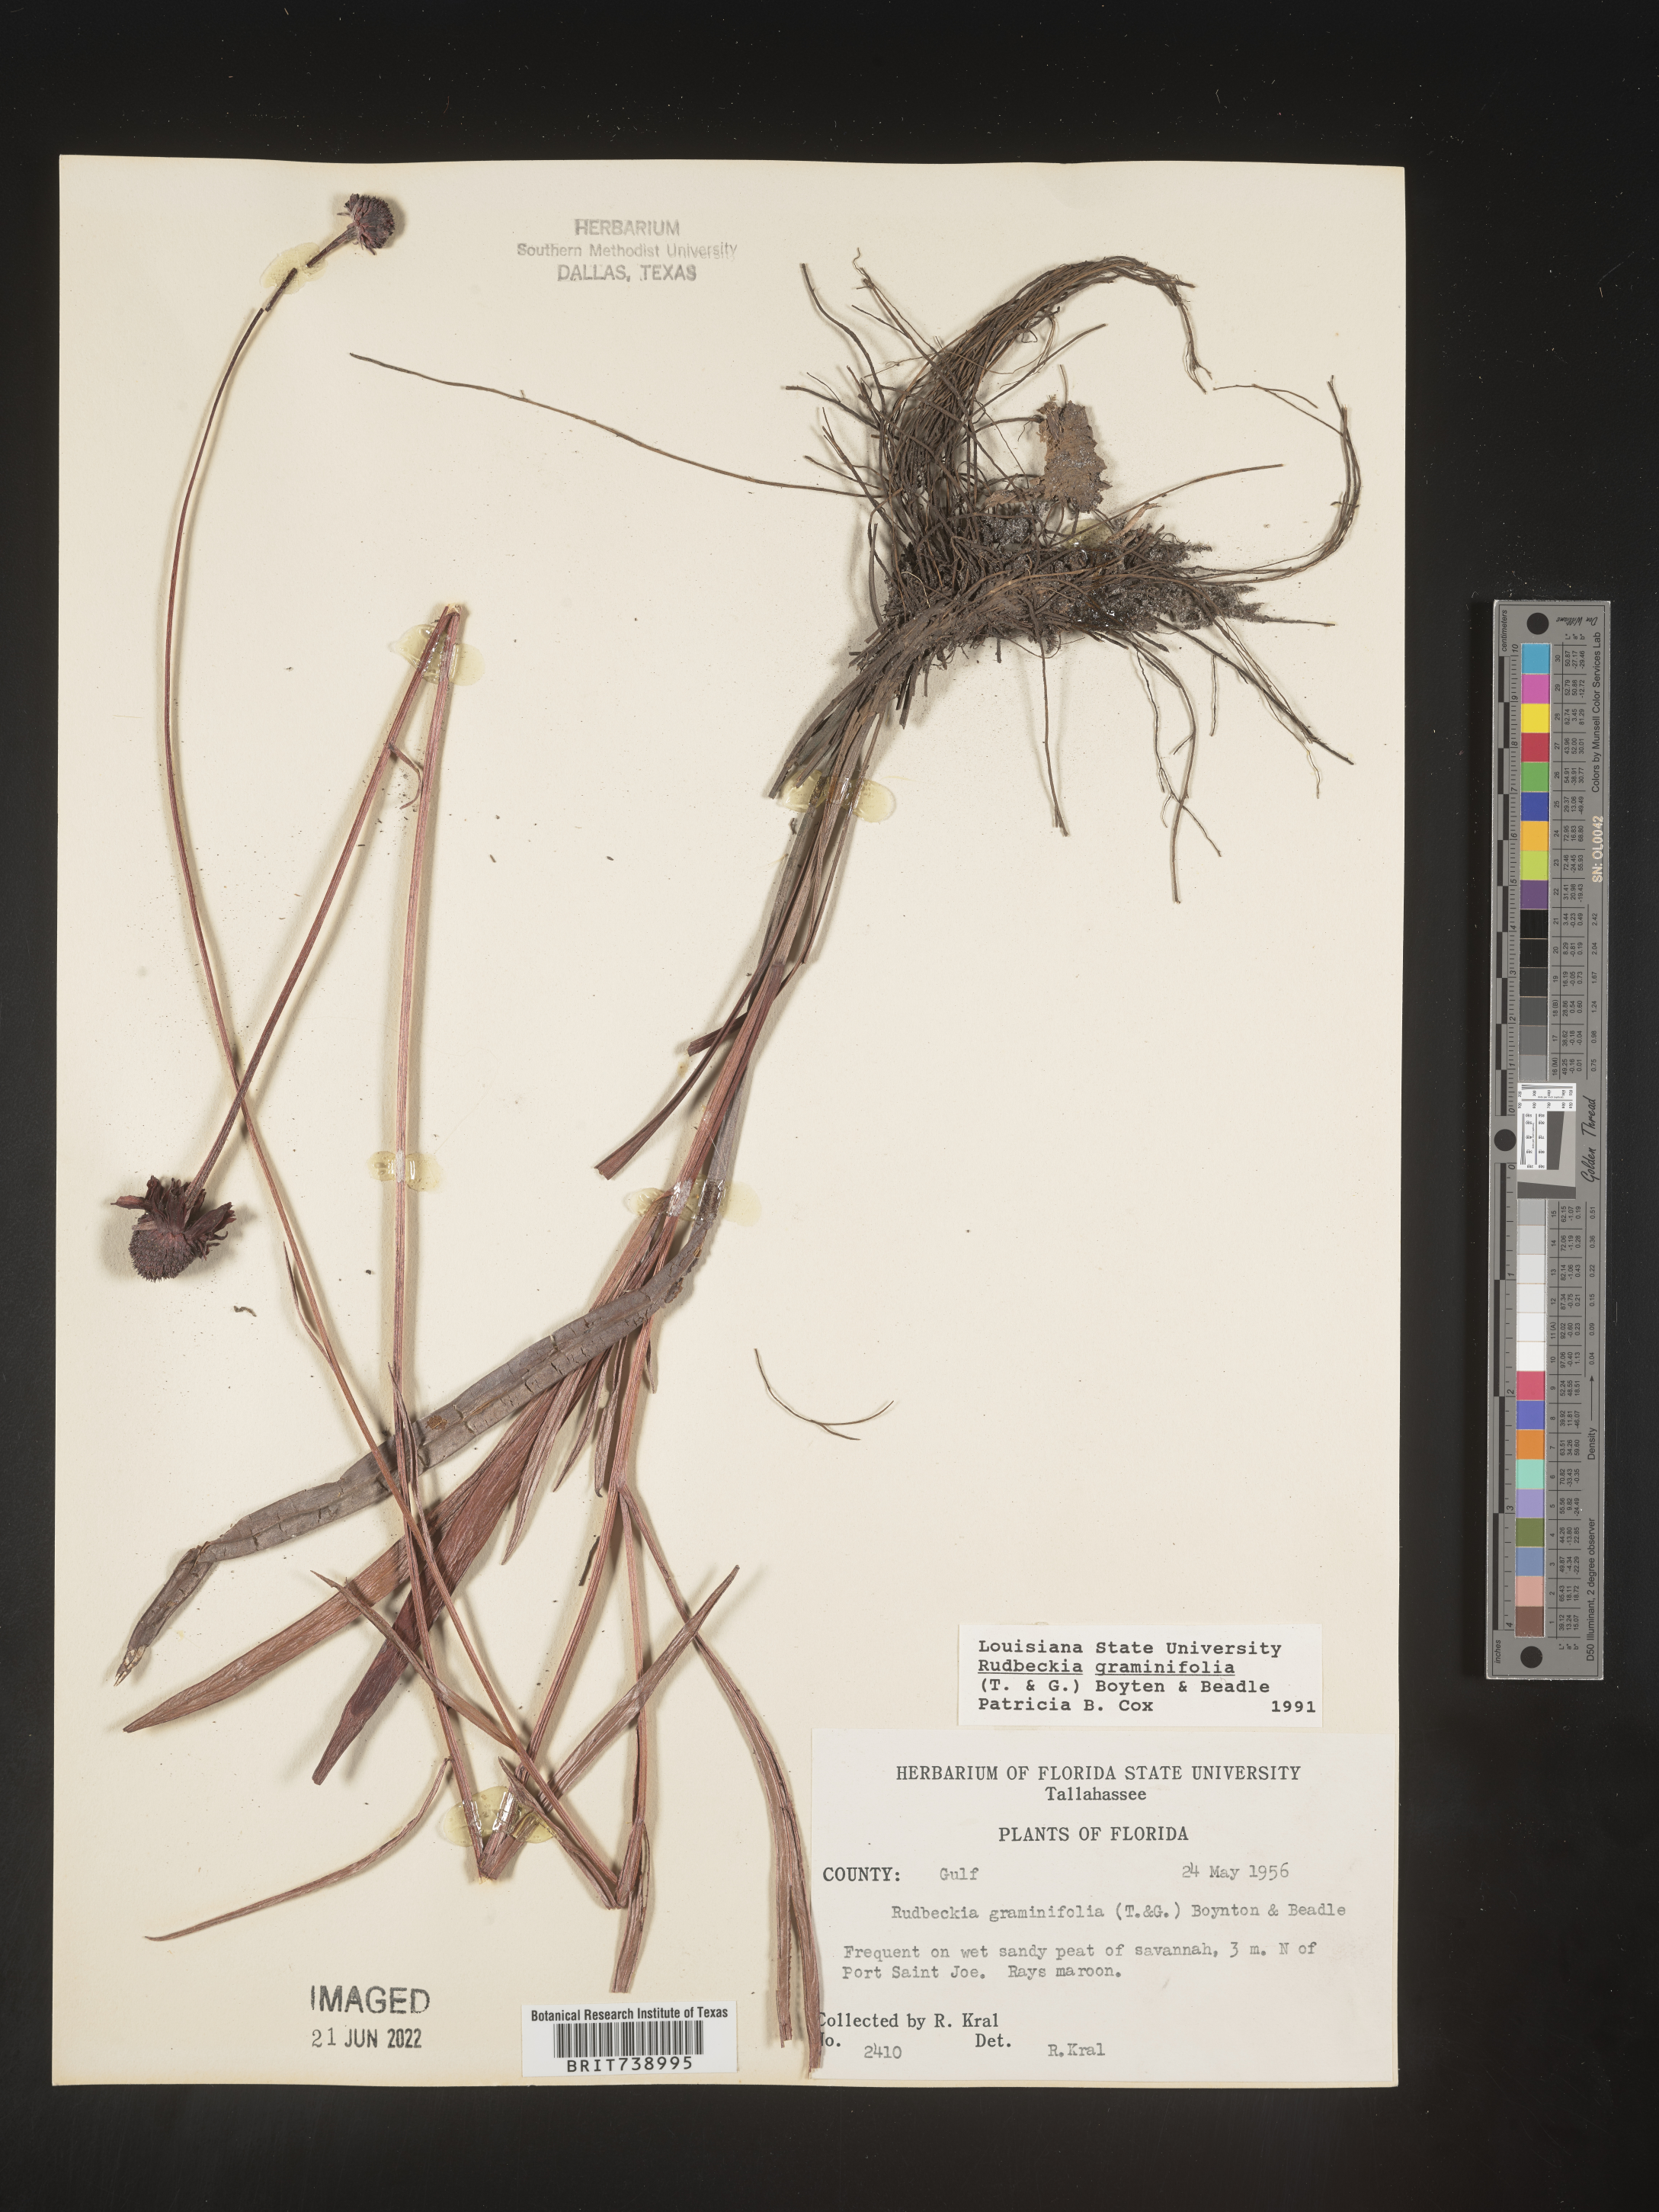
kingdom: Plantae
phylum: Tracheophyta
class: Magnoliopsida
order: Asterales
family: Asteraceae
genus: Rudbeckia
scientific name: Rudbeckia graminifolia
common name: Grass-leaf coneflower
